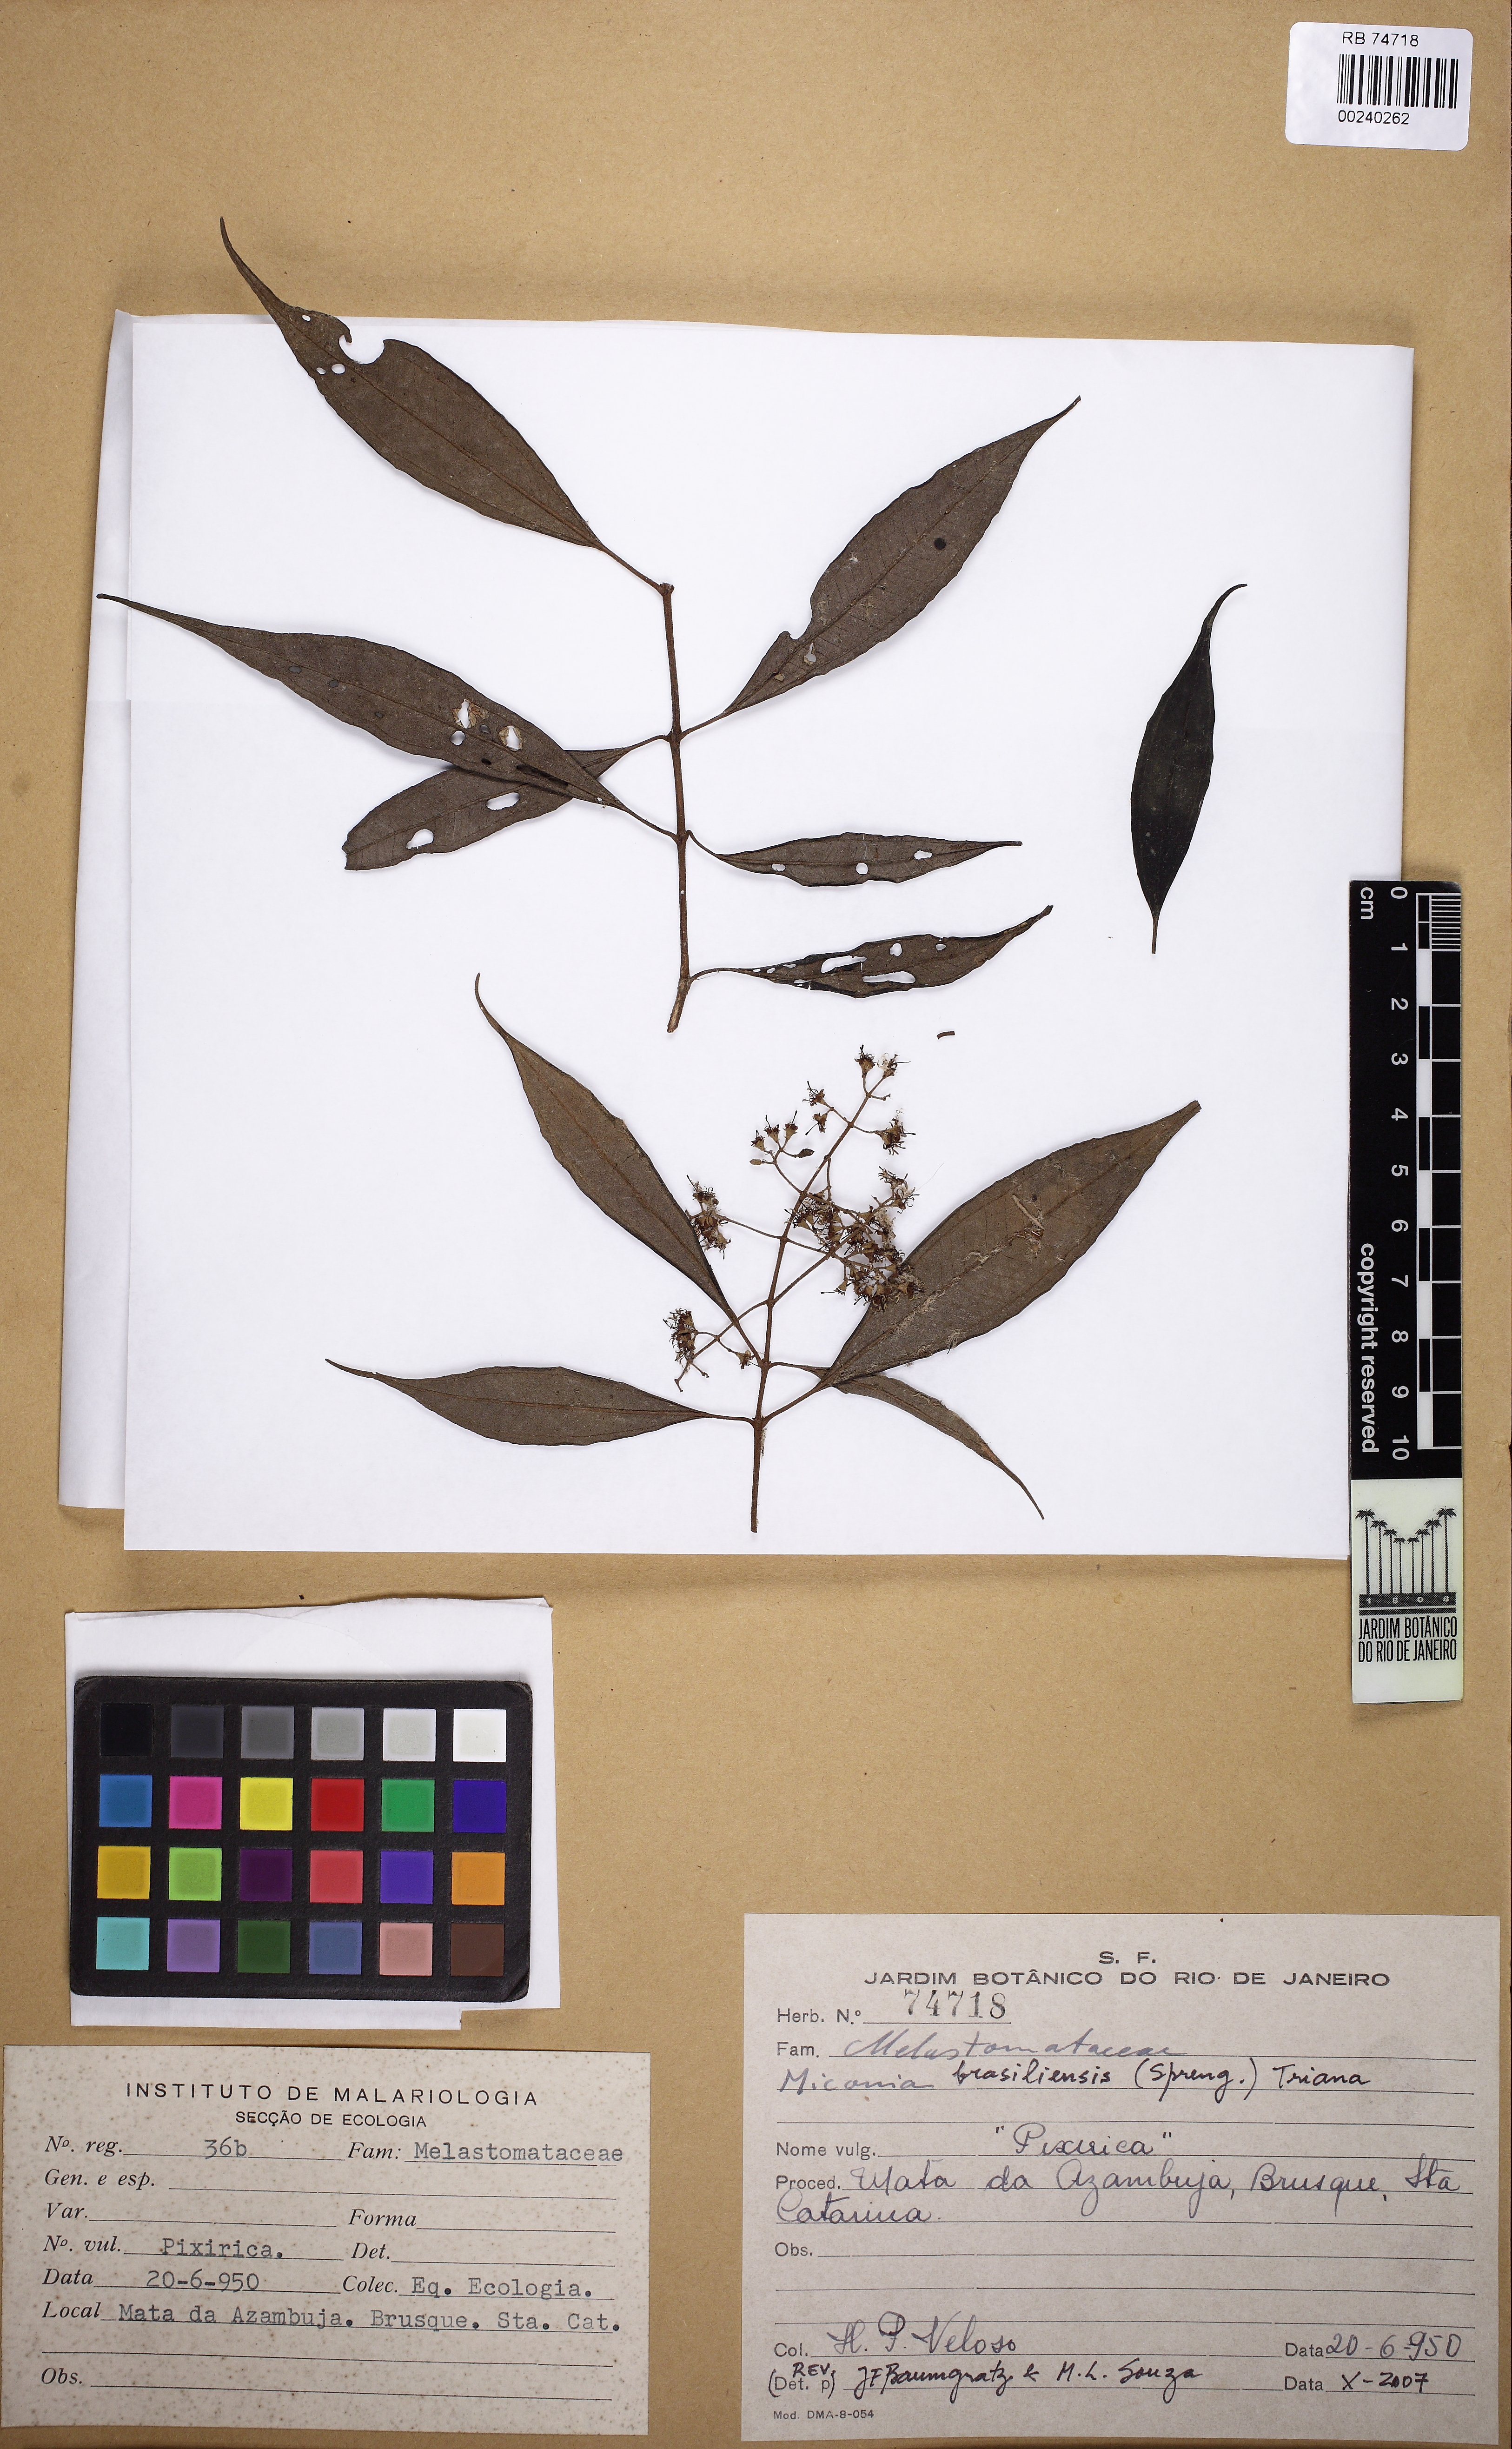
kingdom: Plantae
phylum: Tracheophyta
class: Magnoliopsida
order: Myrtales
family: Melastomataceae
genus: Miconia
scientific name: Miconia brasiliensis
